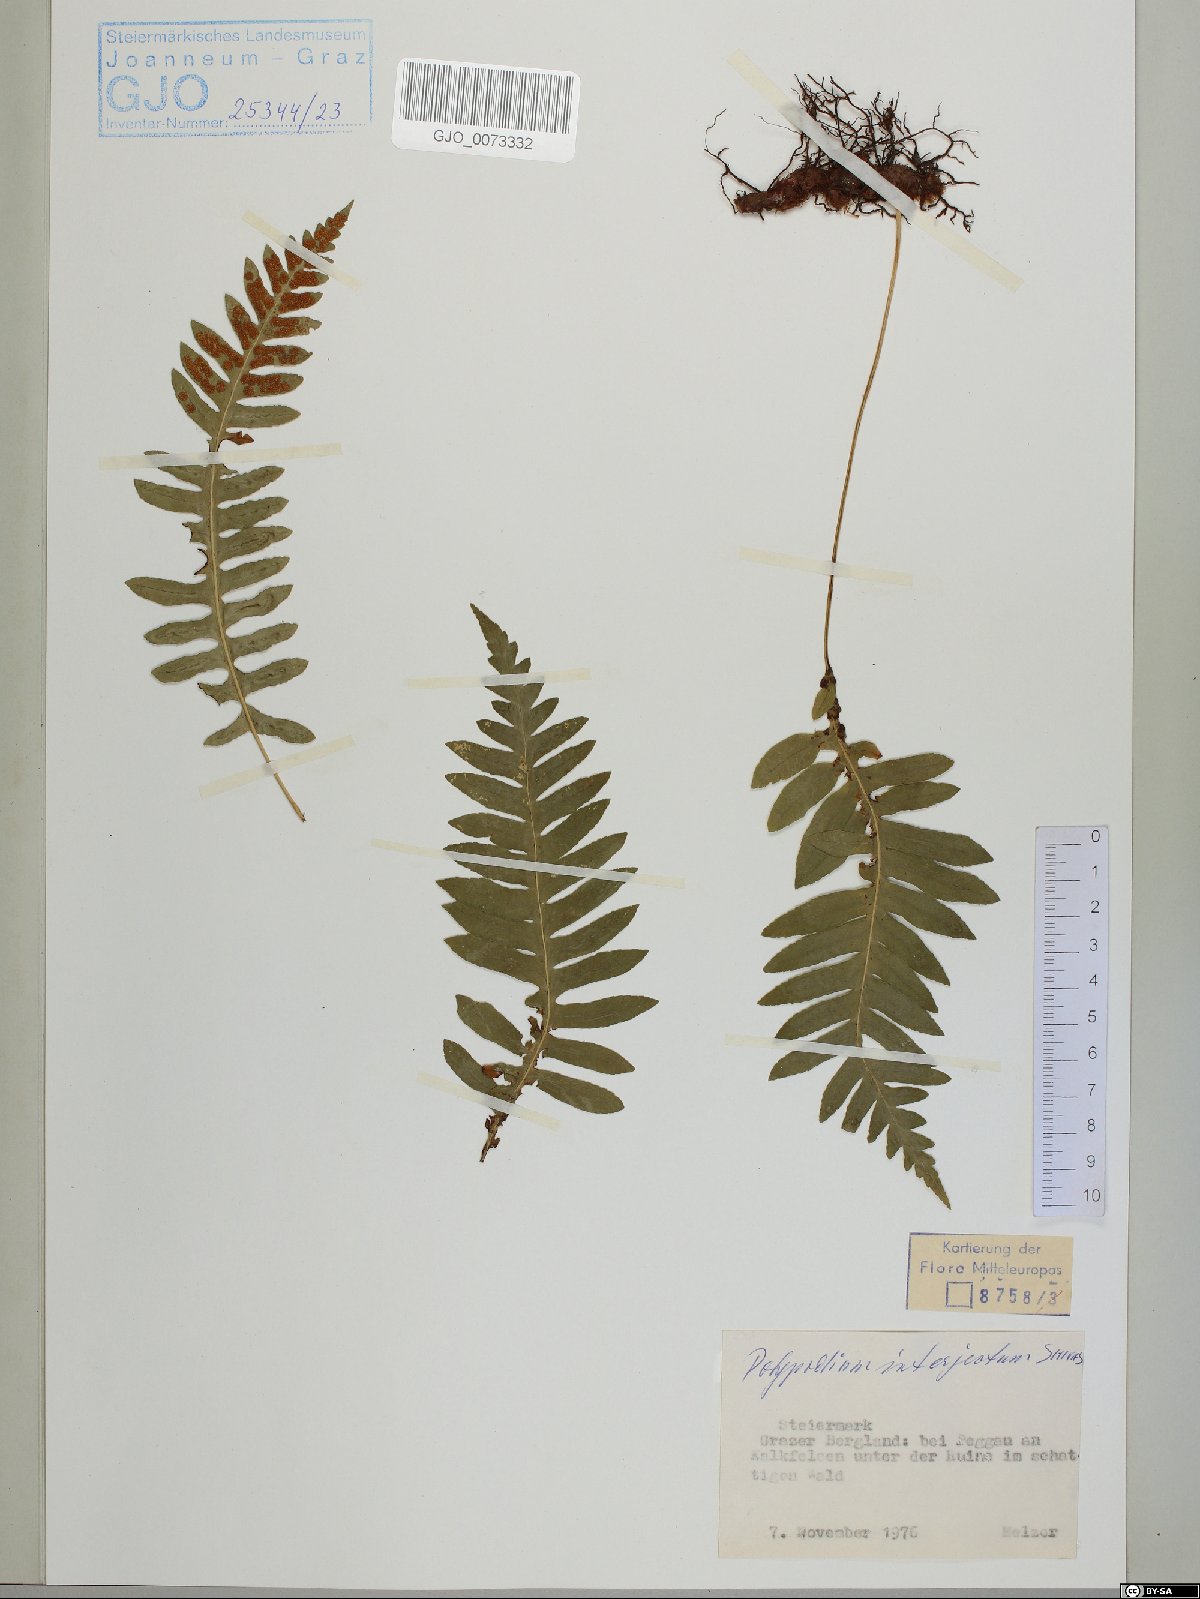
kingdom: Plantae
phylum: Tracheophyta
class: Polypodiopsida
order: Polypodiales
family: Polypodiaceae
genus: Polypodium
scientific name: Polypodium interjectum
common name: Intermediate polypody
